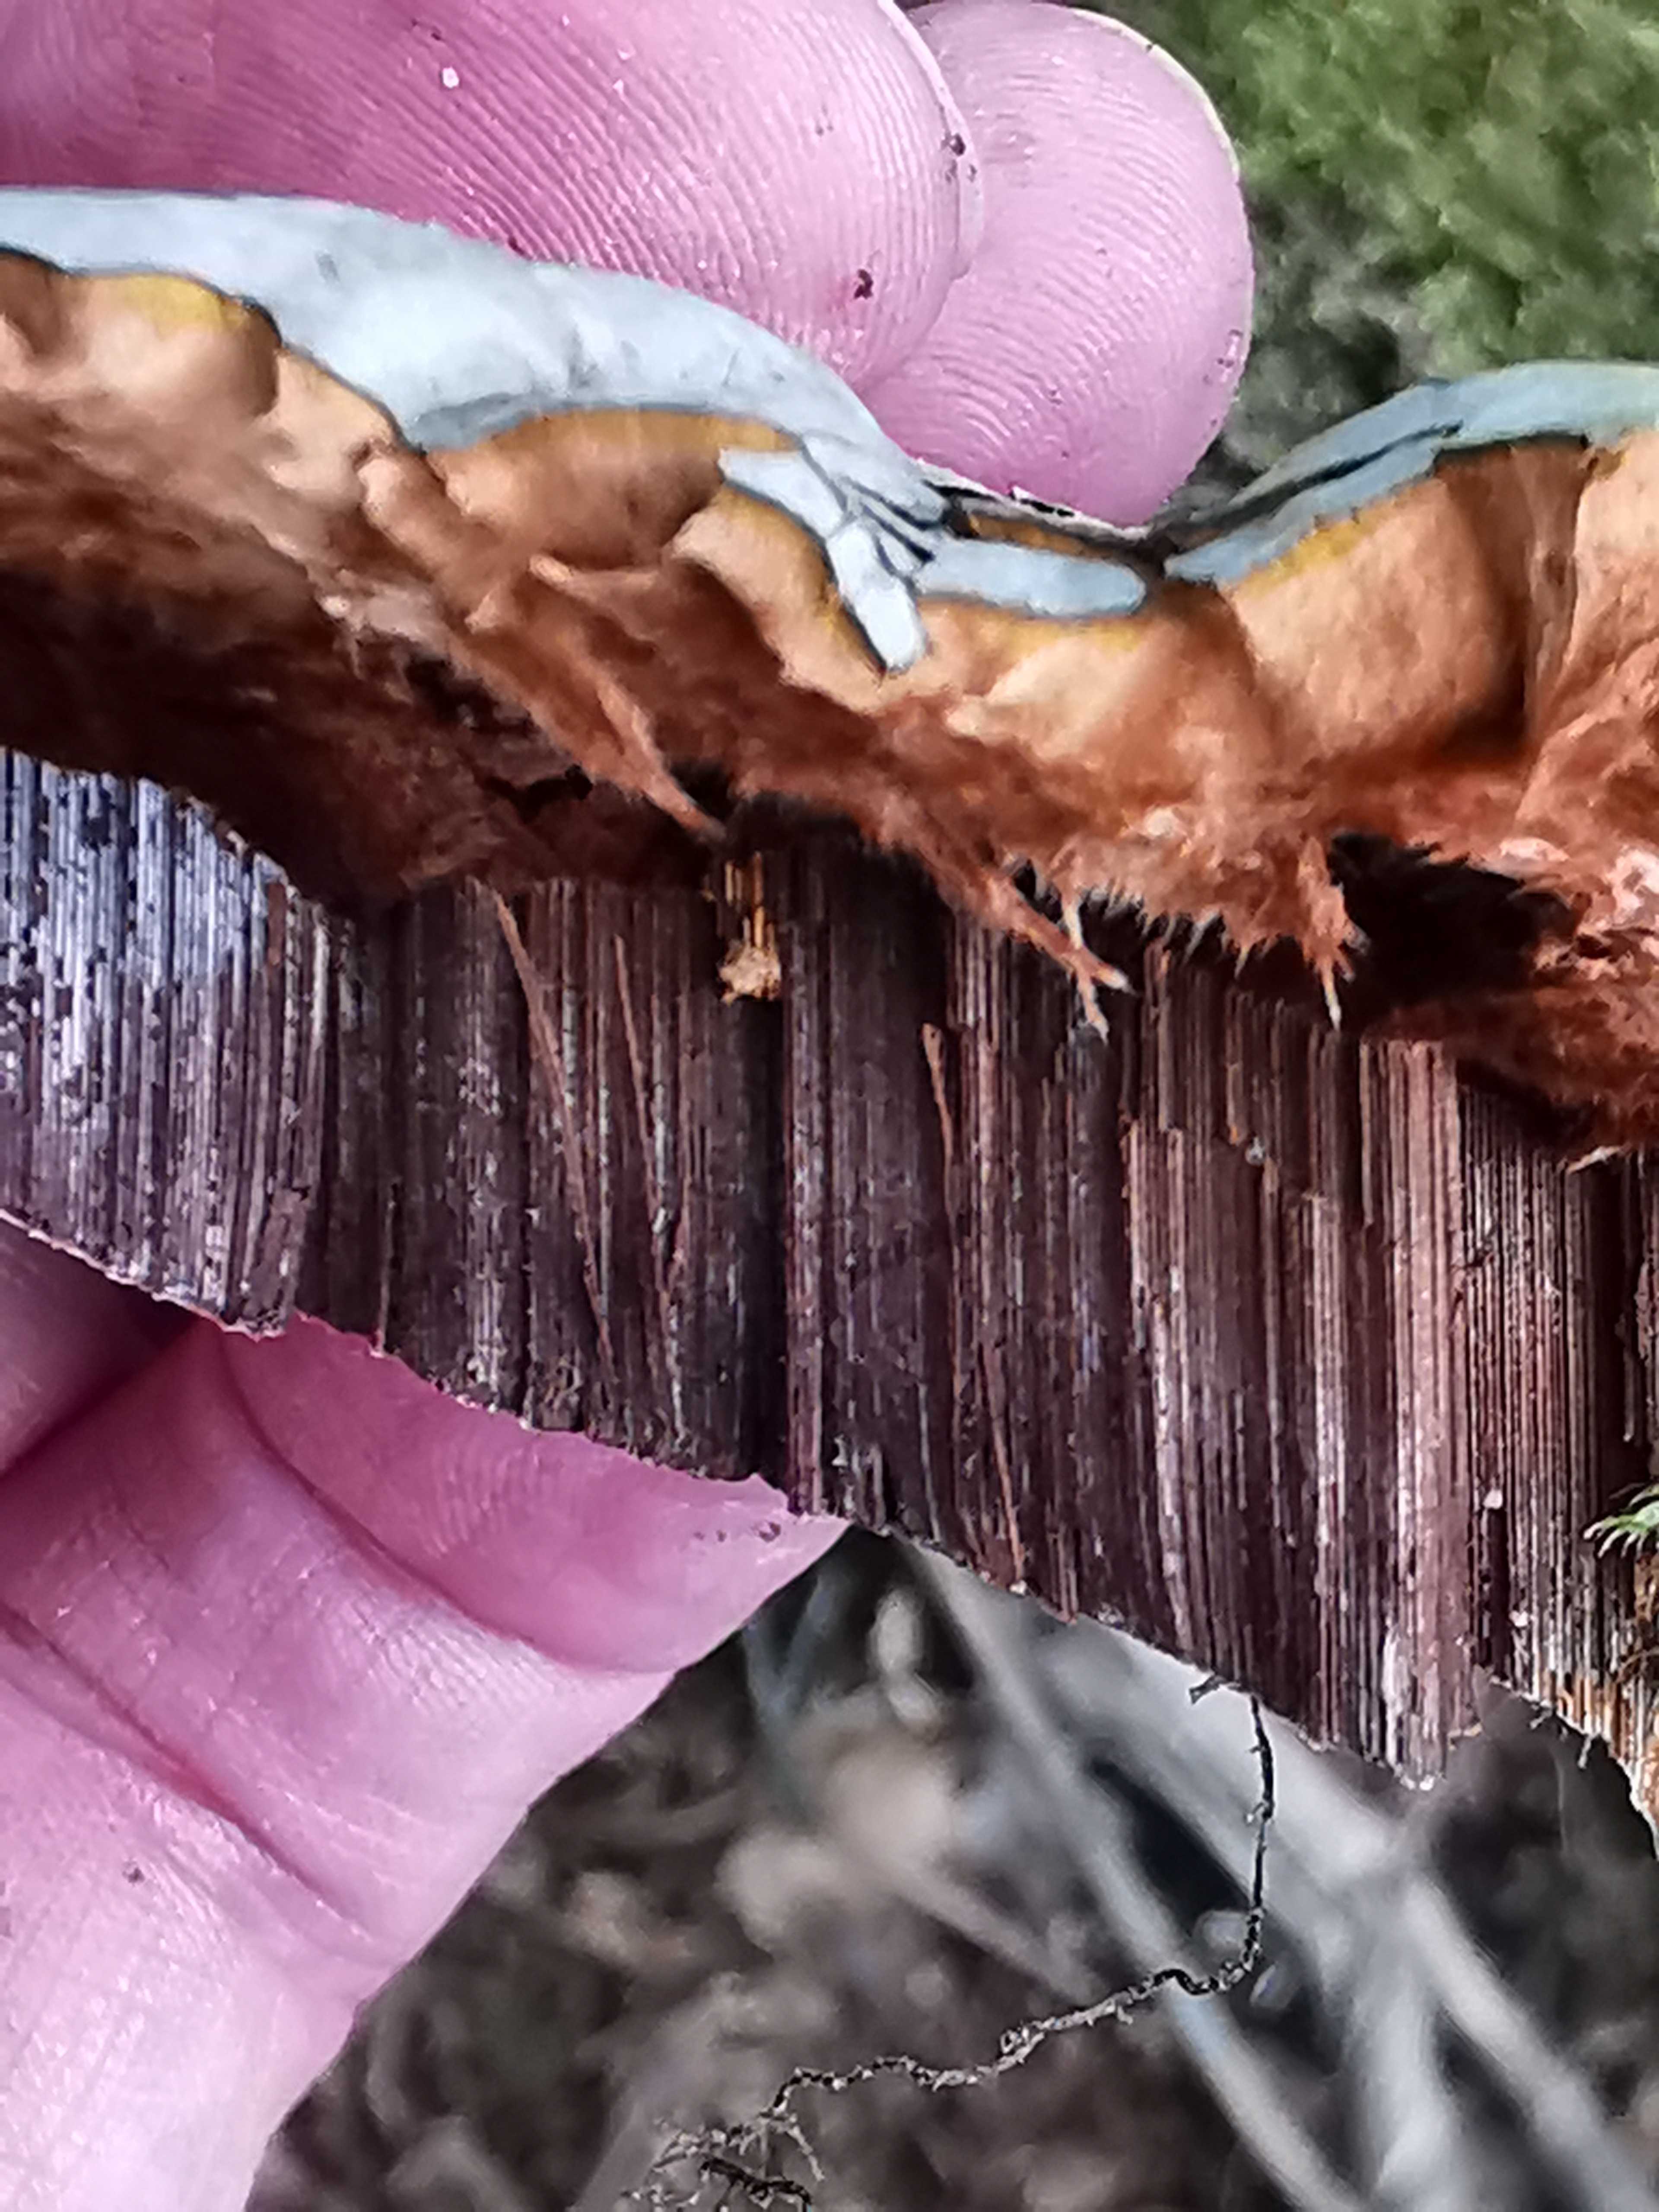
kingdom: Fungi
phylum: Basidiomycota
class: Agaricomycetes
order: Polyporales
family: Polyporaceae
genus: Ganoderma
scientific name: Ganoderma applanatum
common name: flad lakporesvamp
